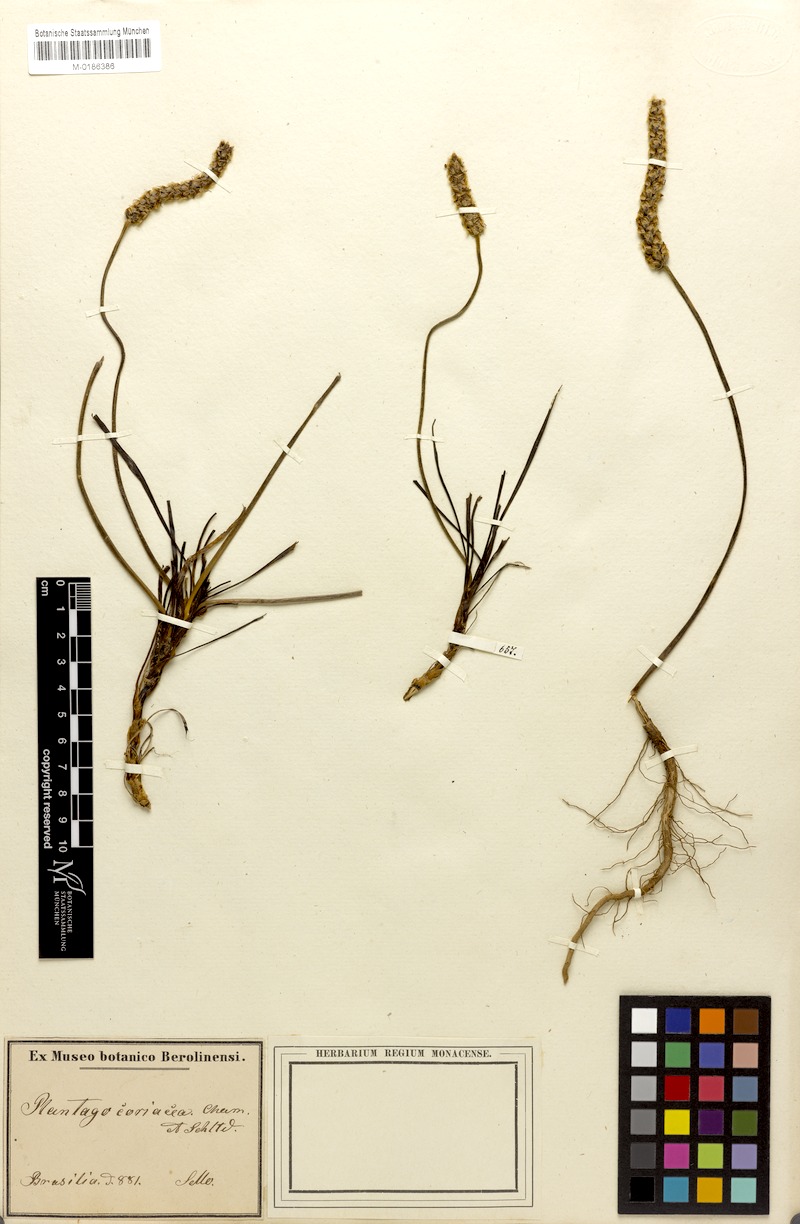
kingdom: Plantae
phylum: Tracheophyta
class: Magnoliopsida
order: Lamiales
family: Plantaginaceae
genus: Plantago
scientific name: Plantago brasiliensis
